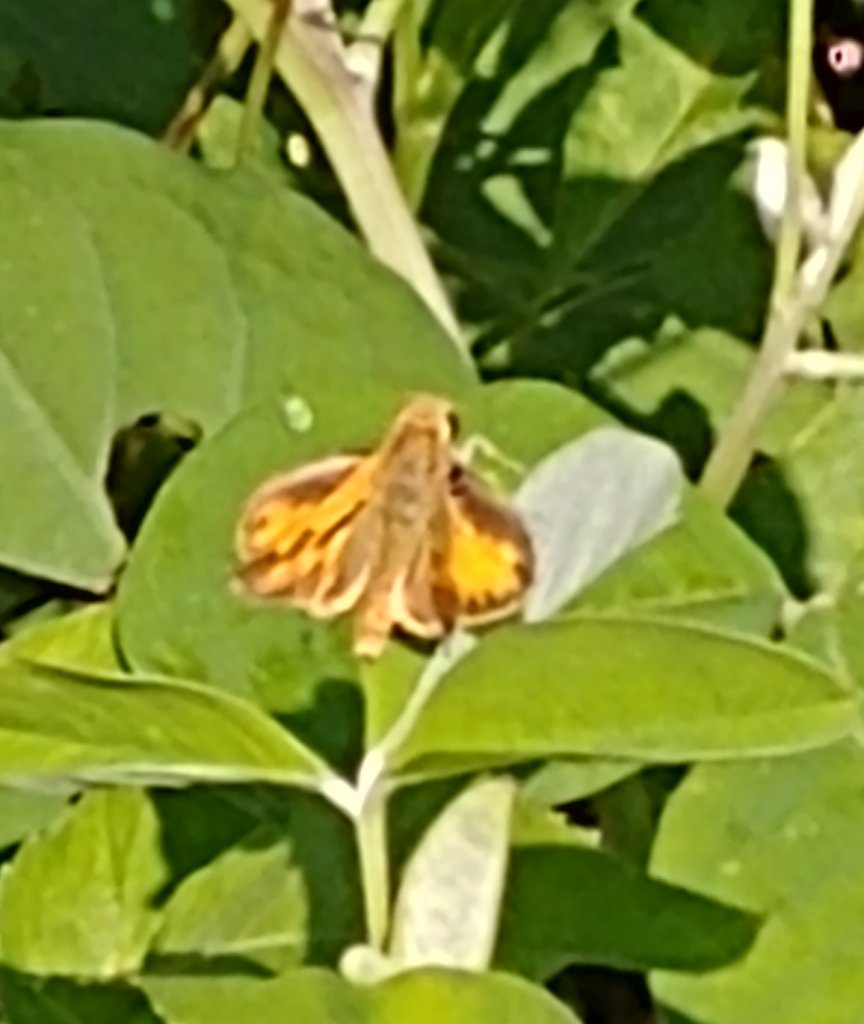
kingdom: Animalia
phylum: Arthropoda
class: Insecta
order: Lepidoptera
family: Hesperiidae
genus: Polites
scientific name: Polites vibex
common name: Whirlabout
